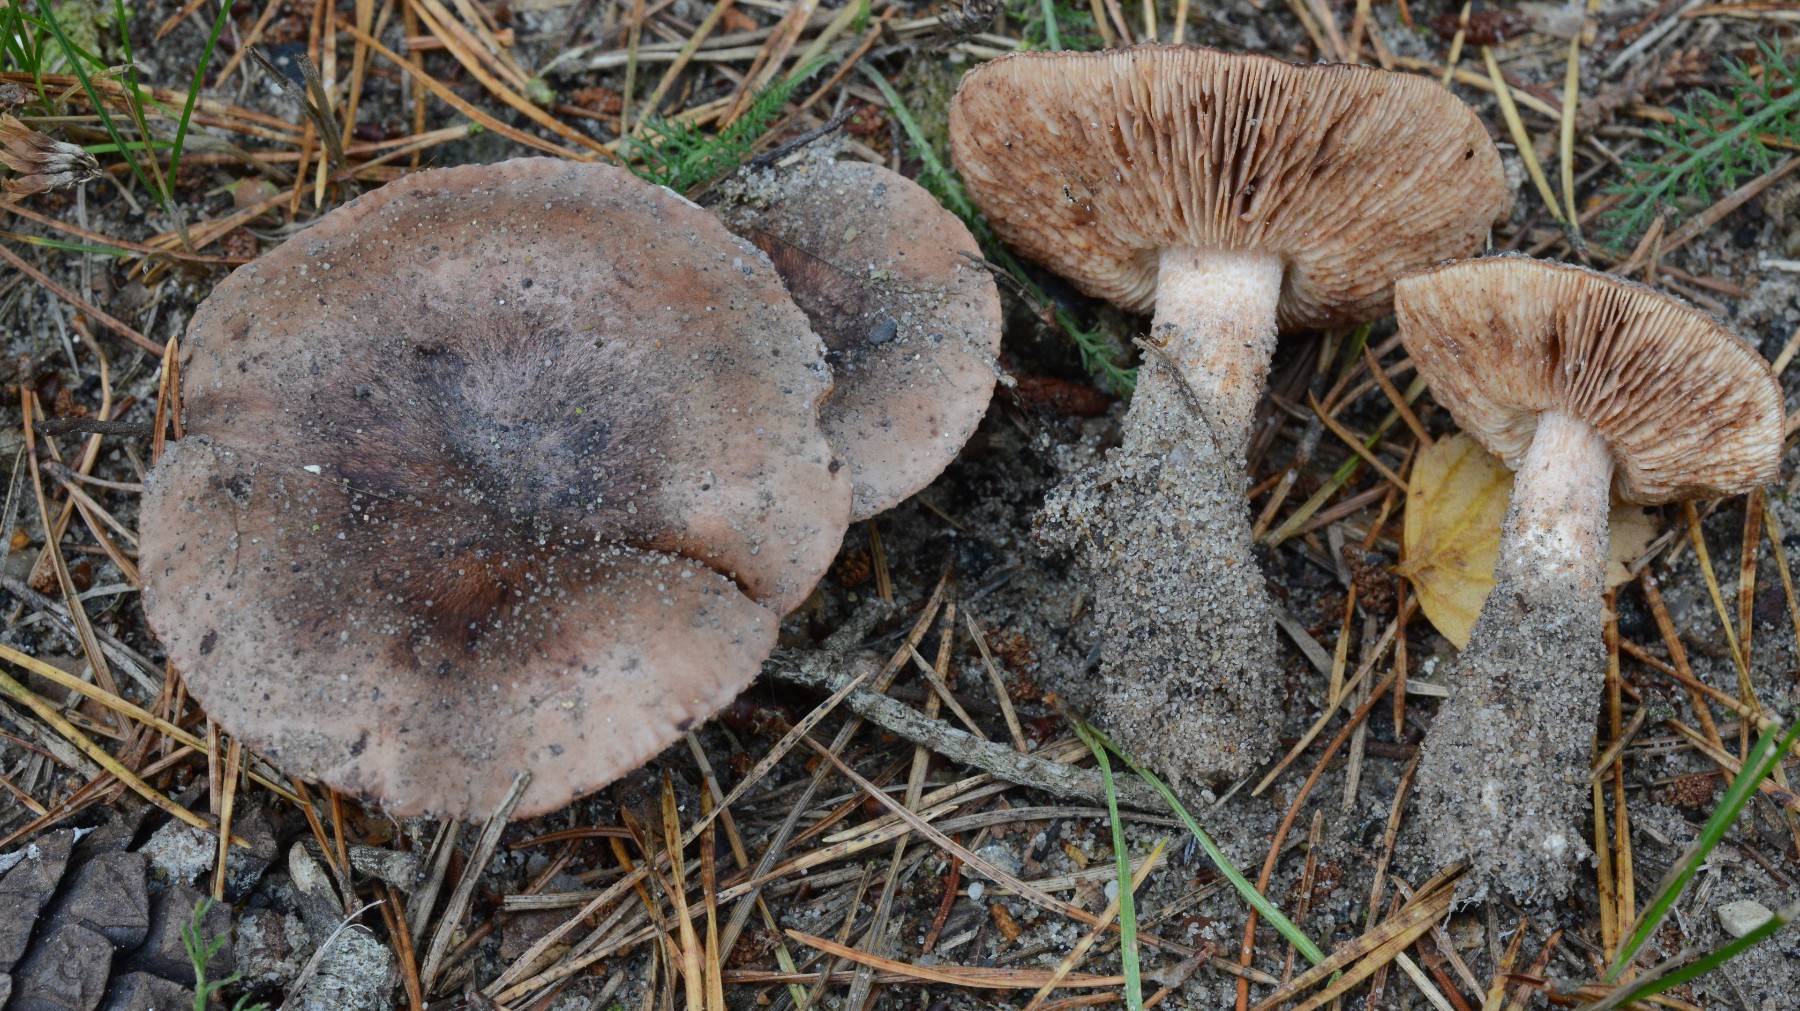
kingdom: Fungi
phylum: Basidiomycota
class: Agaricomycetes
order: Agaricales
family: Tricholomataceae
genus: Tricholoma
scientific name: Tricholoma albobrunneum
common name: kastanie-ridderhat
